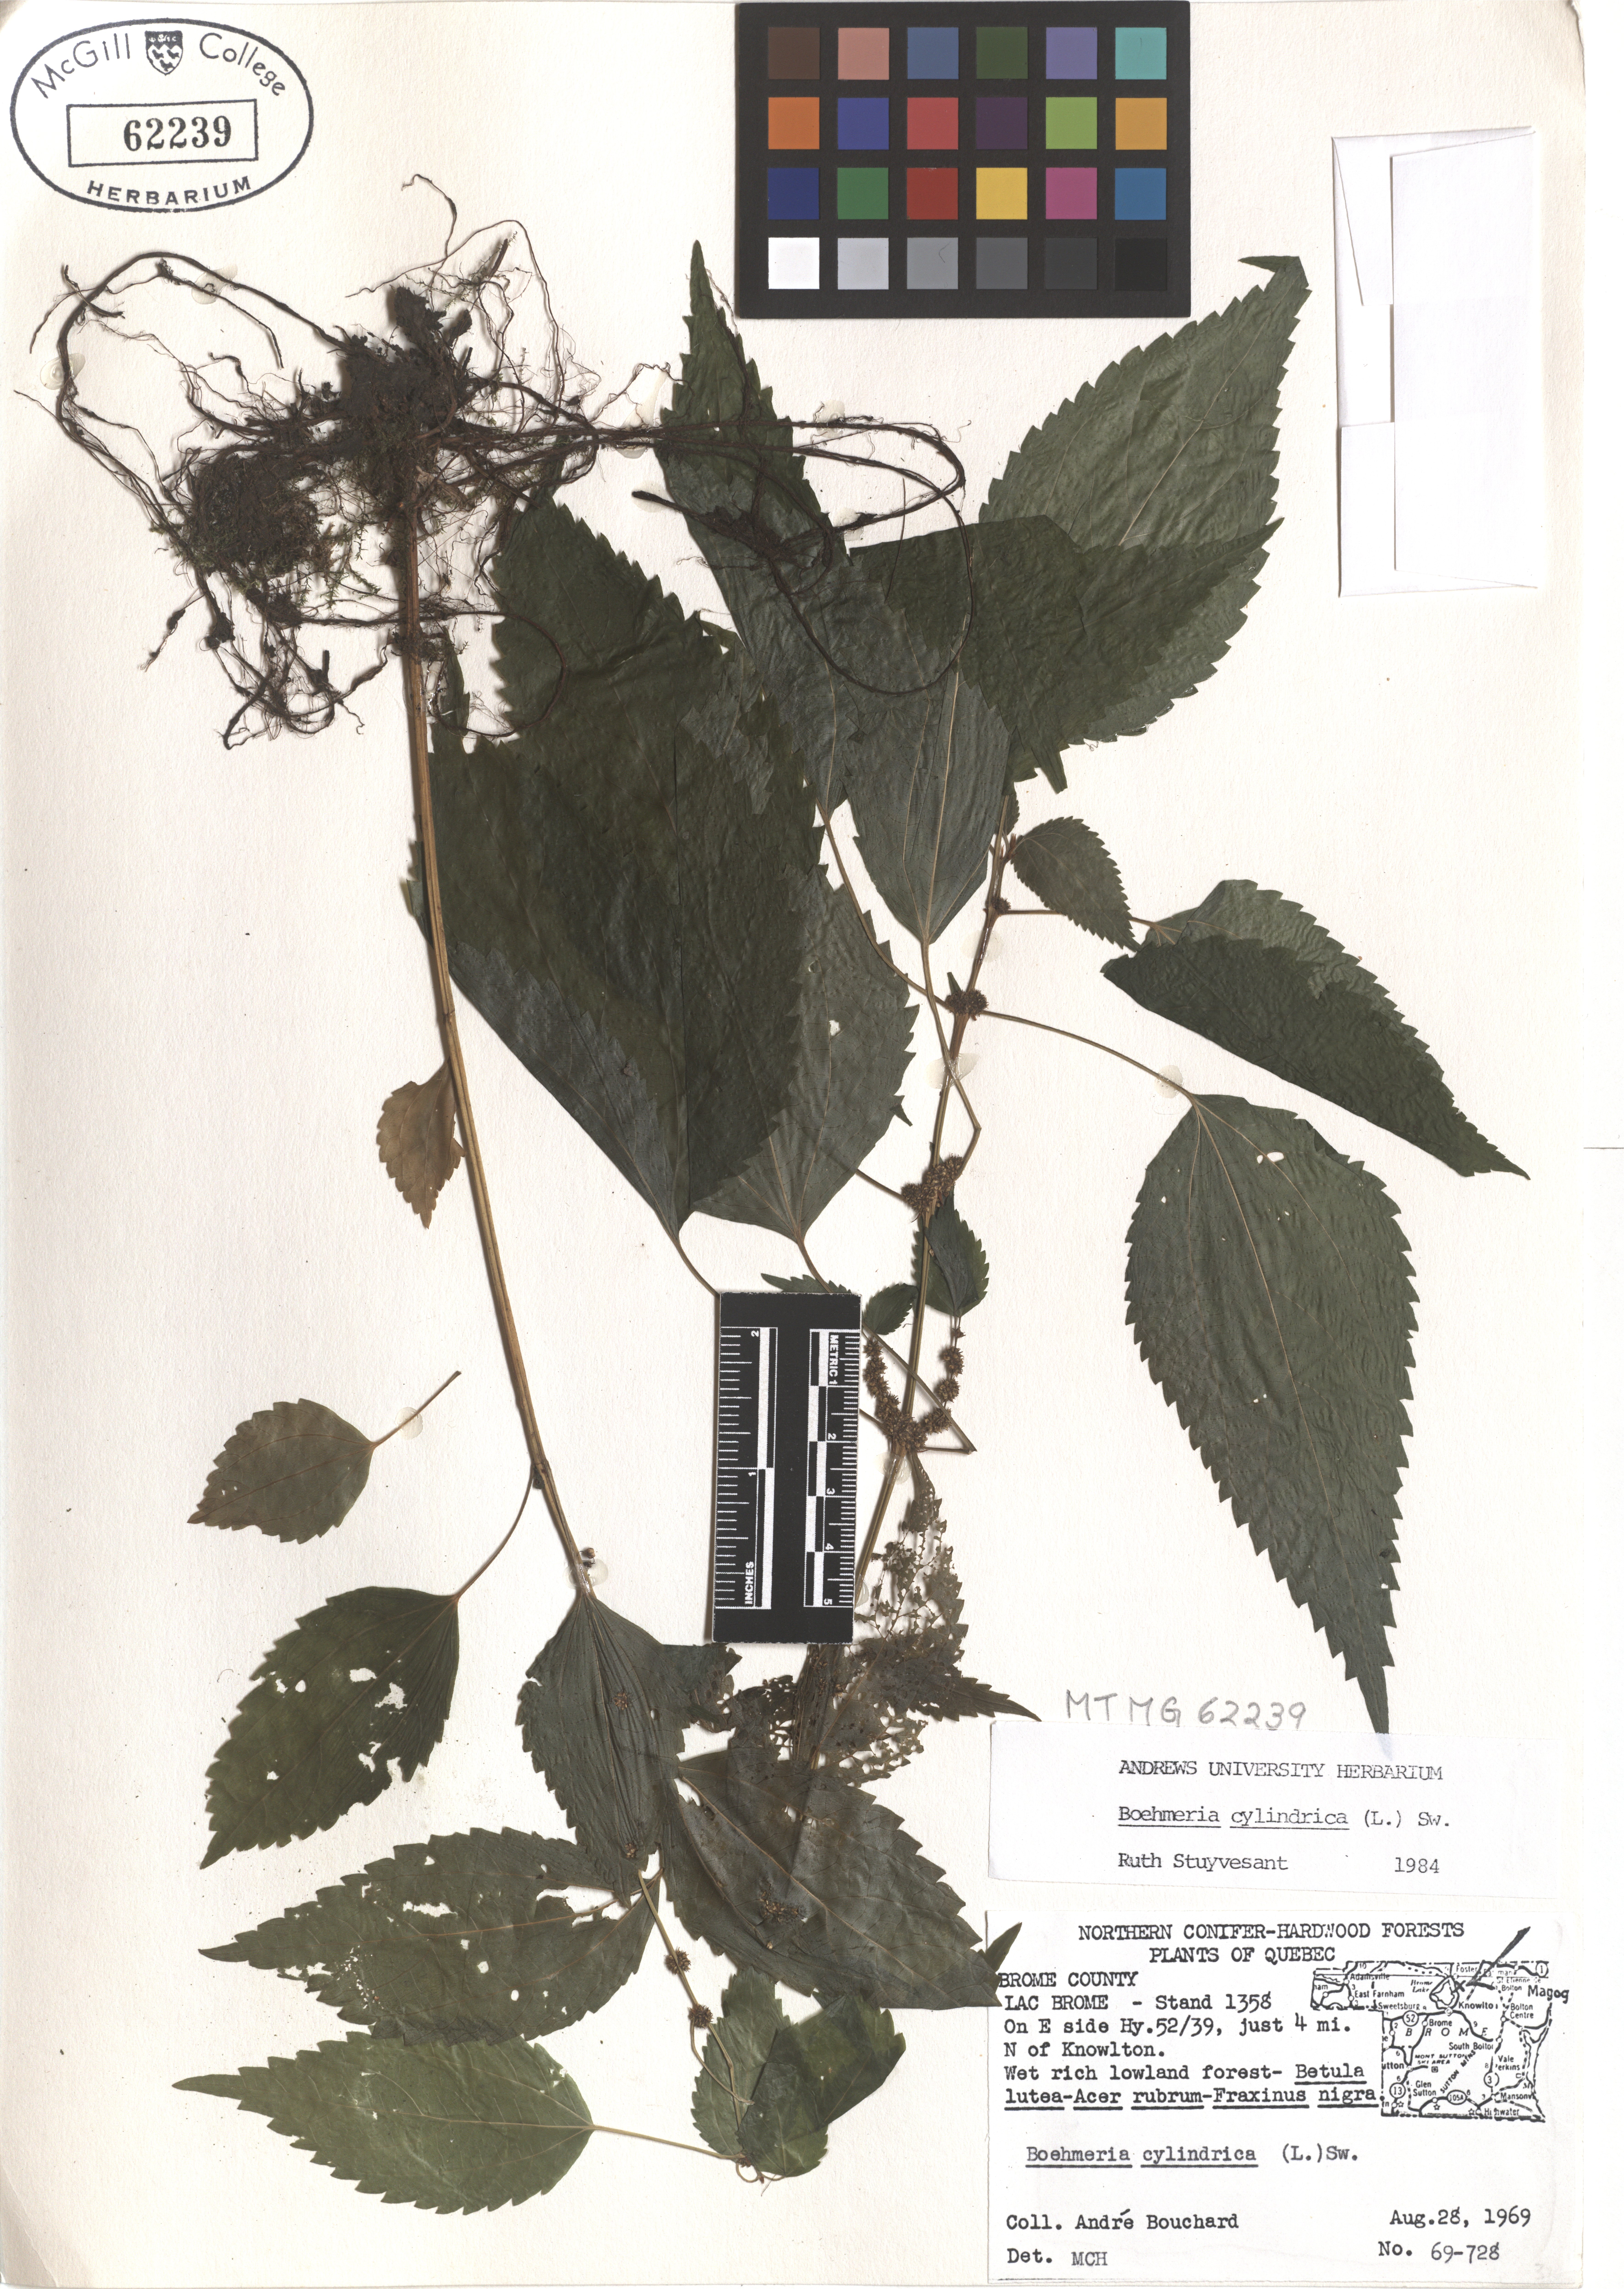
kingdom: Plantae
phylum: Tracheophyta
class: Magnoliopsida
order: Rosales
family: Urticaceae
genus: Boehmeria
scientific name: Boehmeria cylindrica
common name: Bog-hemp
